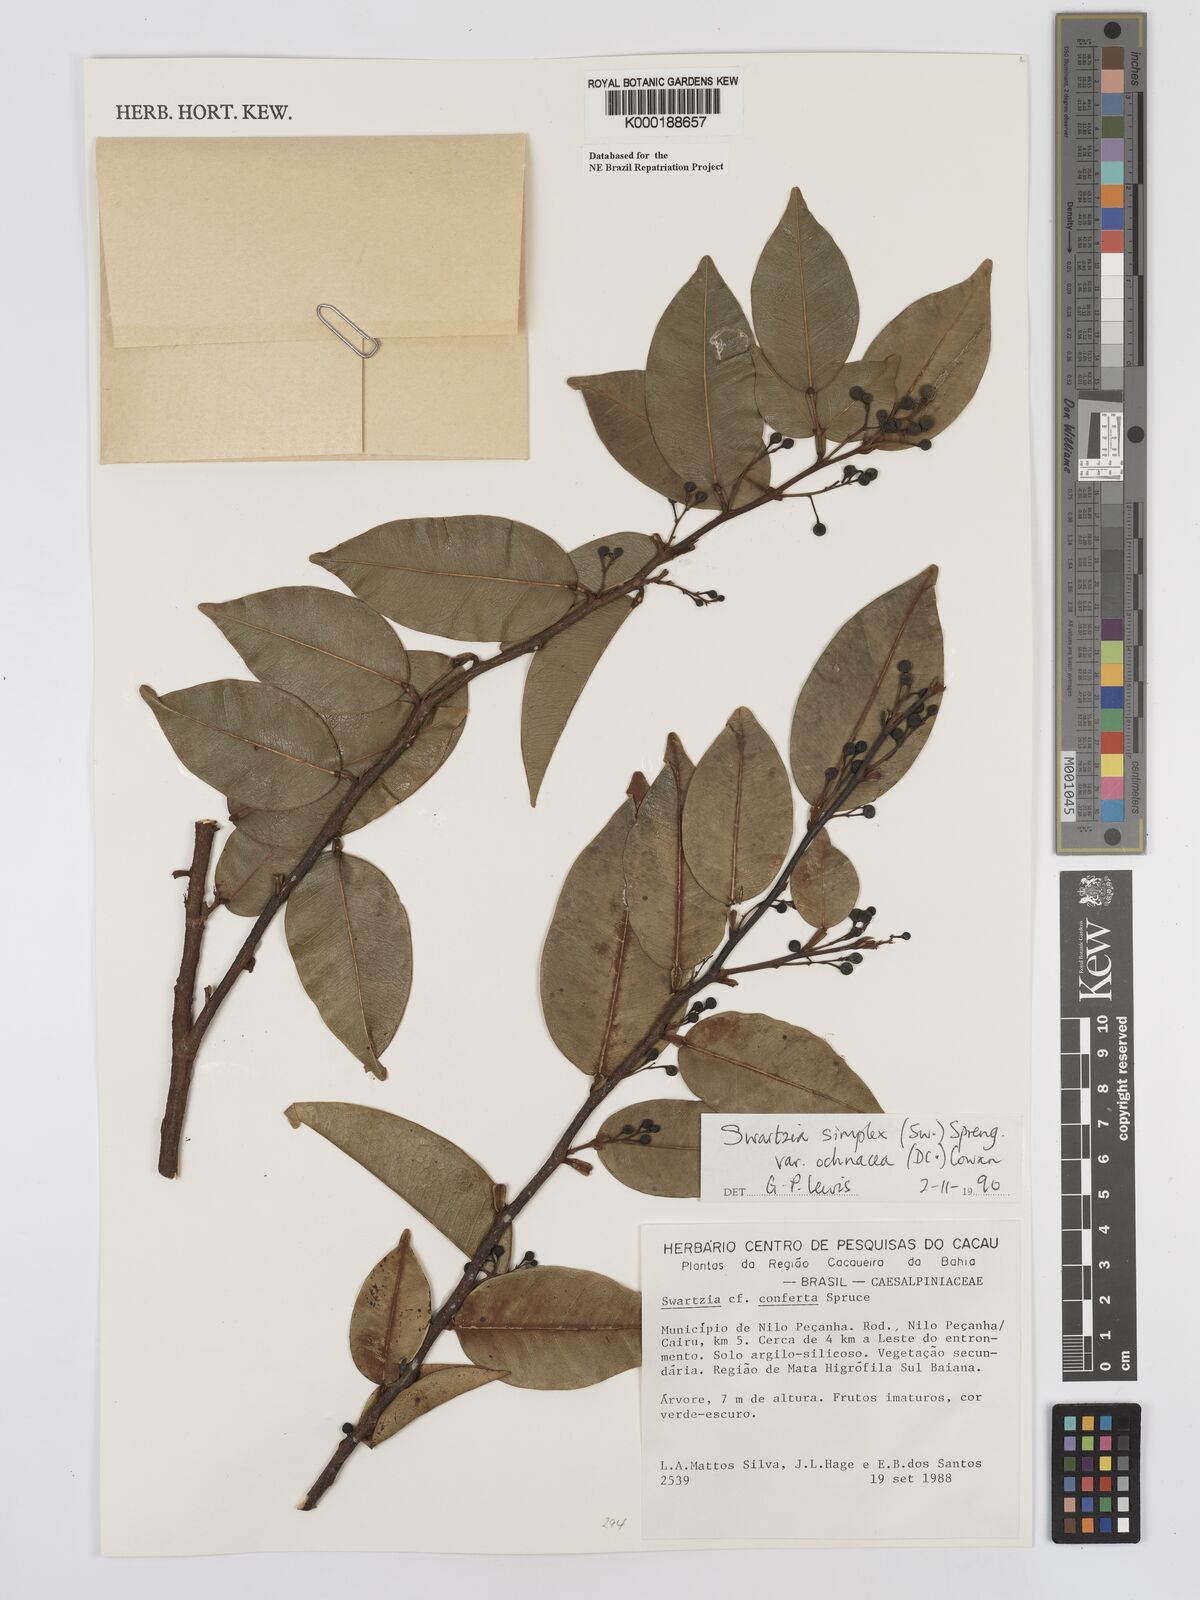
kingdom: Plantae
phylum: Tracheophyta
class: Magnoliopsida
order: Fabales
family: Fabaceae
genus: Swartzia
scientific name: Swartzia simplex
